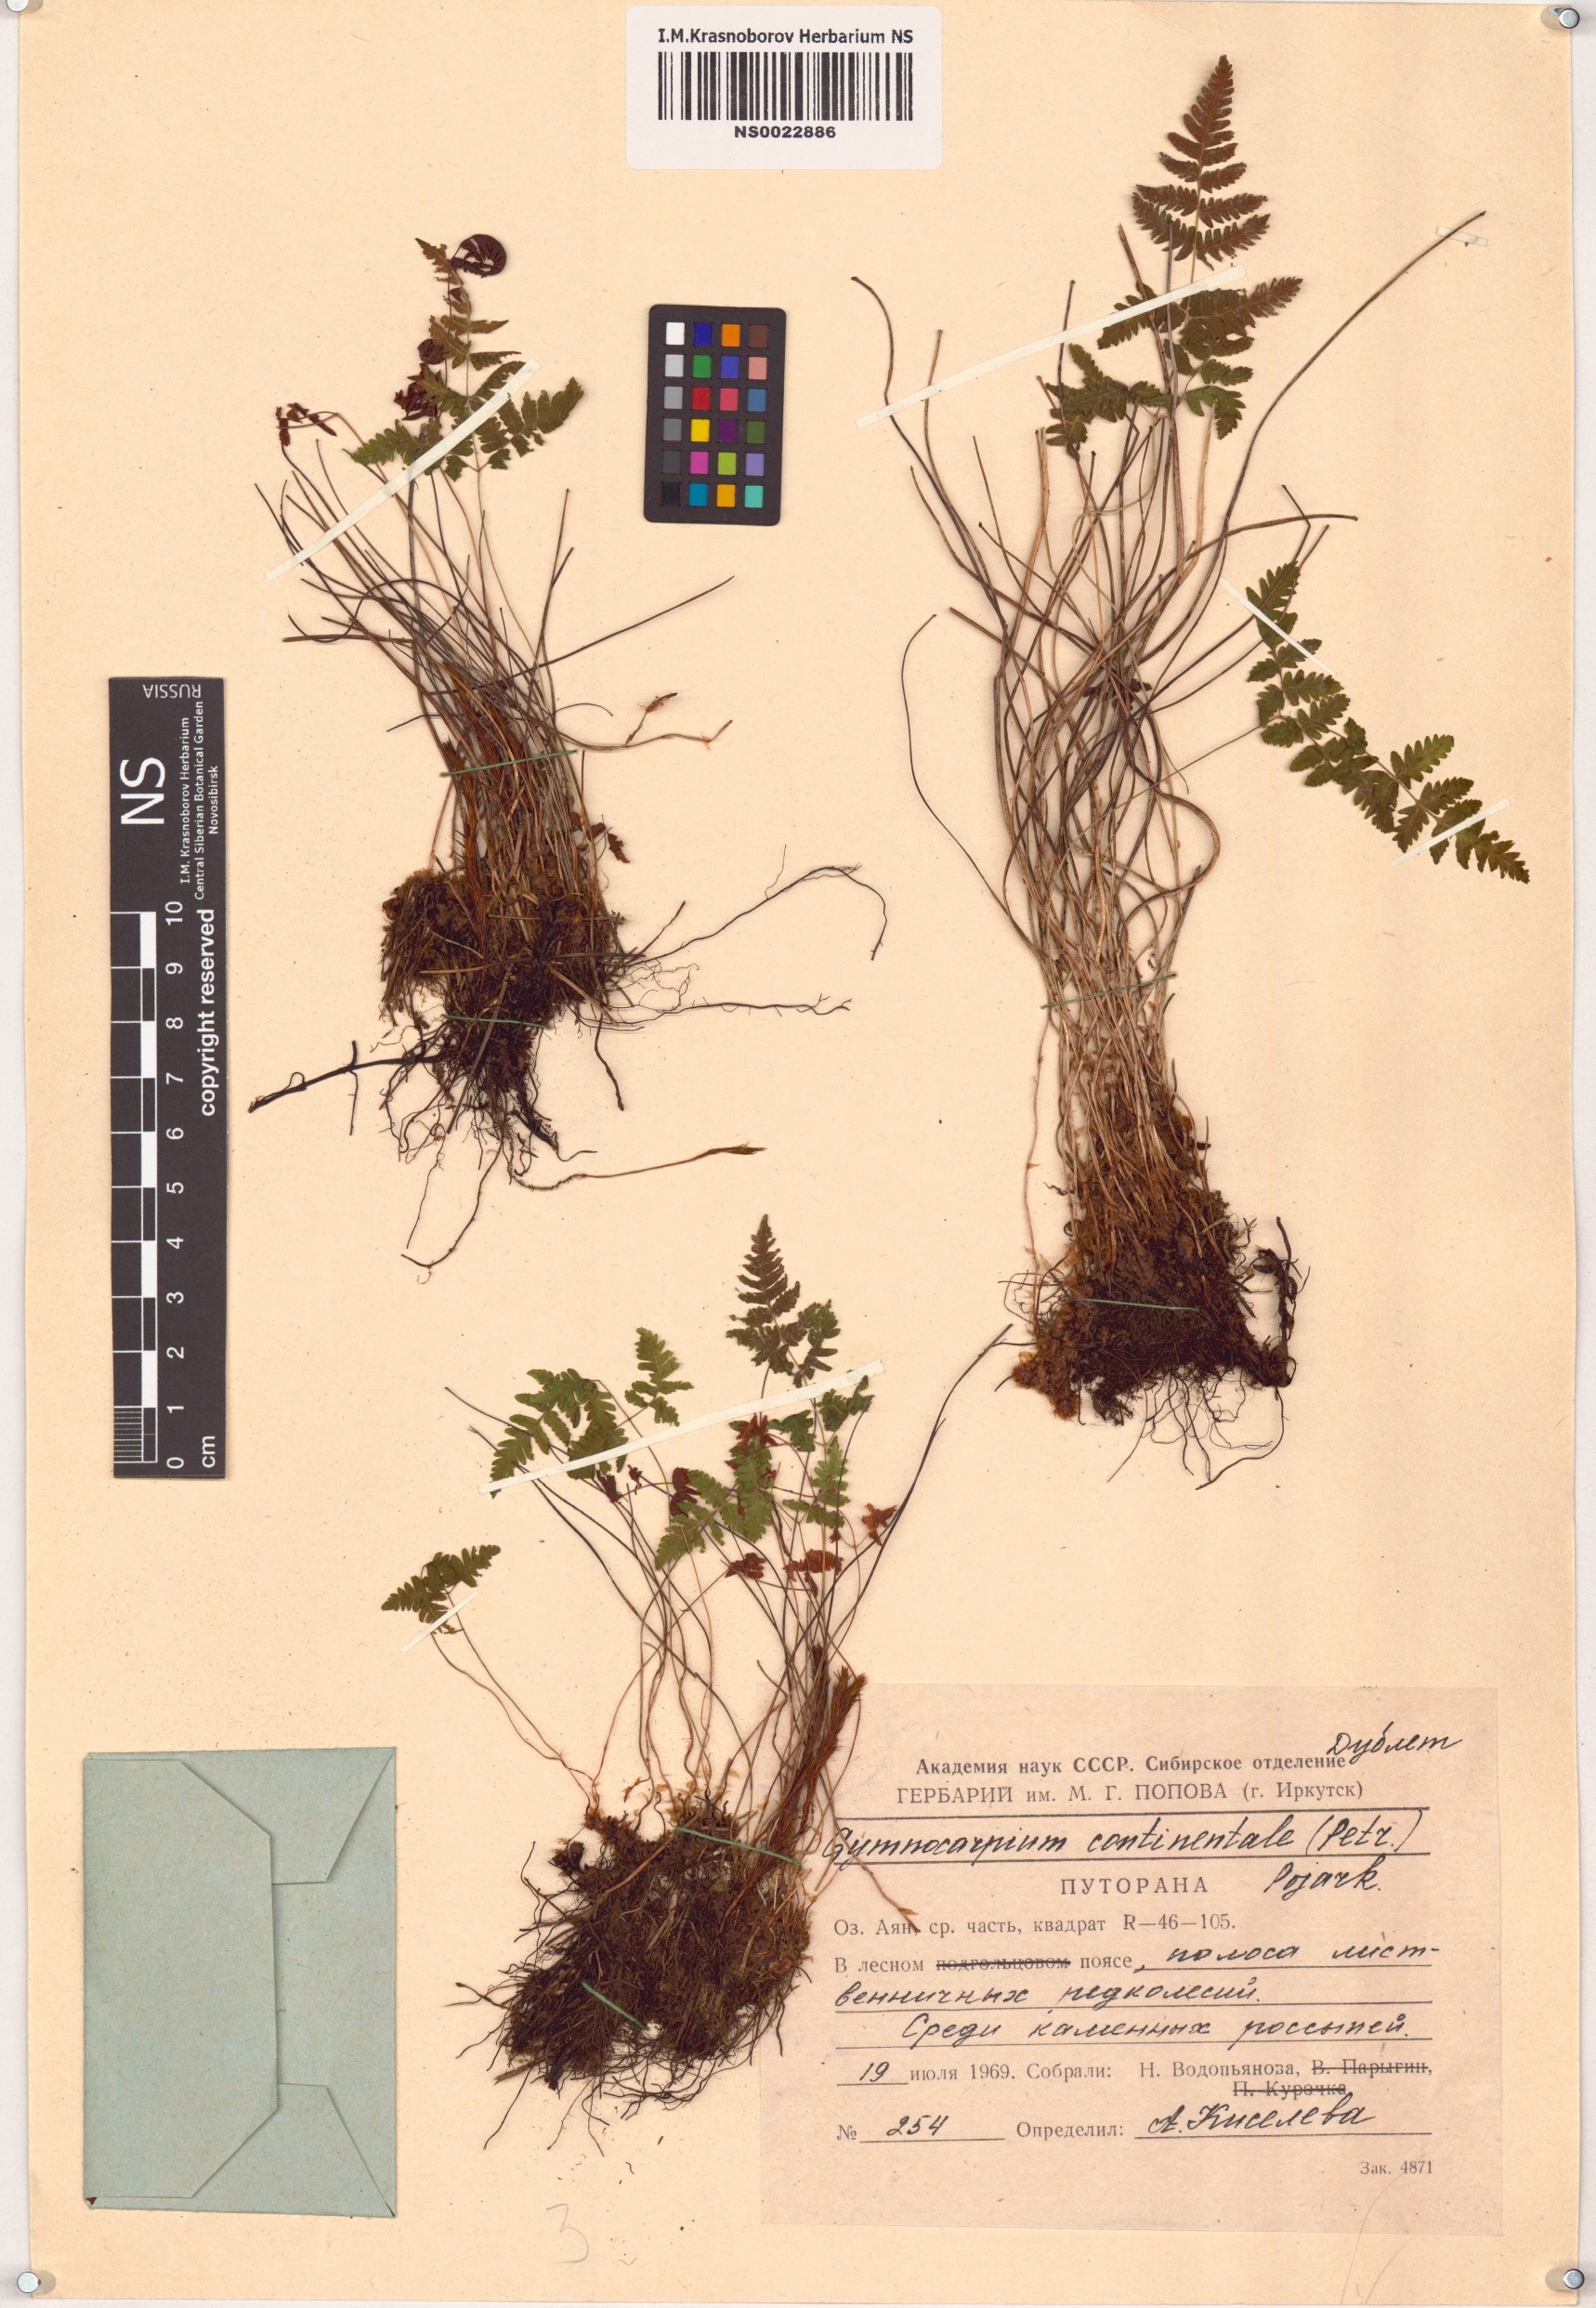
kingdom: Plantae
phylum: Tracheophyta
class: Polypodiopsida
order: Polypodiales
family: Cystopteridaceae
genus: Gymnocarpium
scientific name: Gymnocarpium continentale
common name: Asian oak fern
